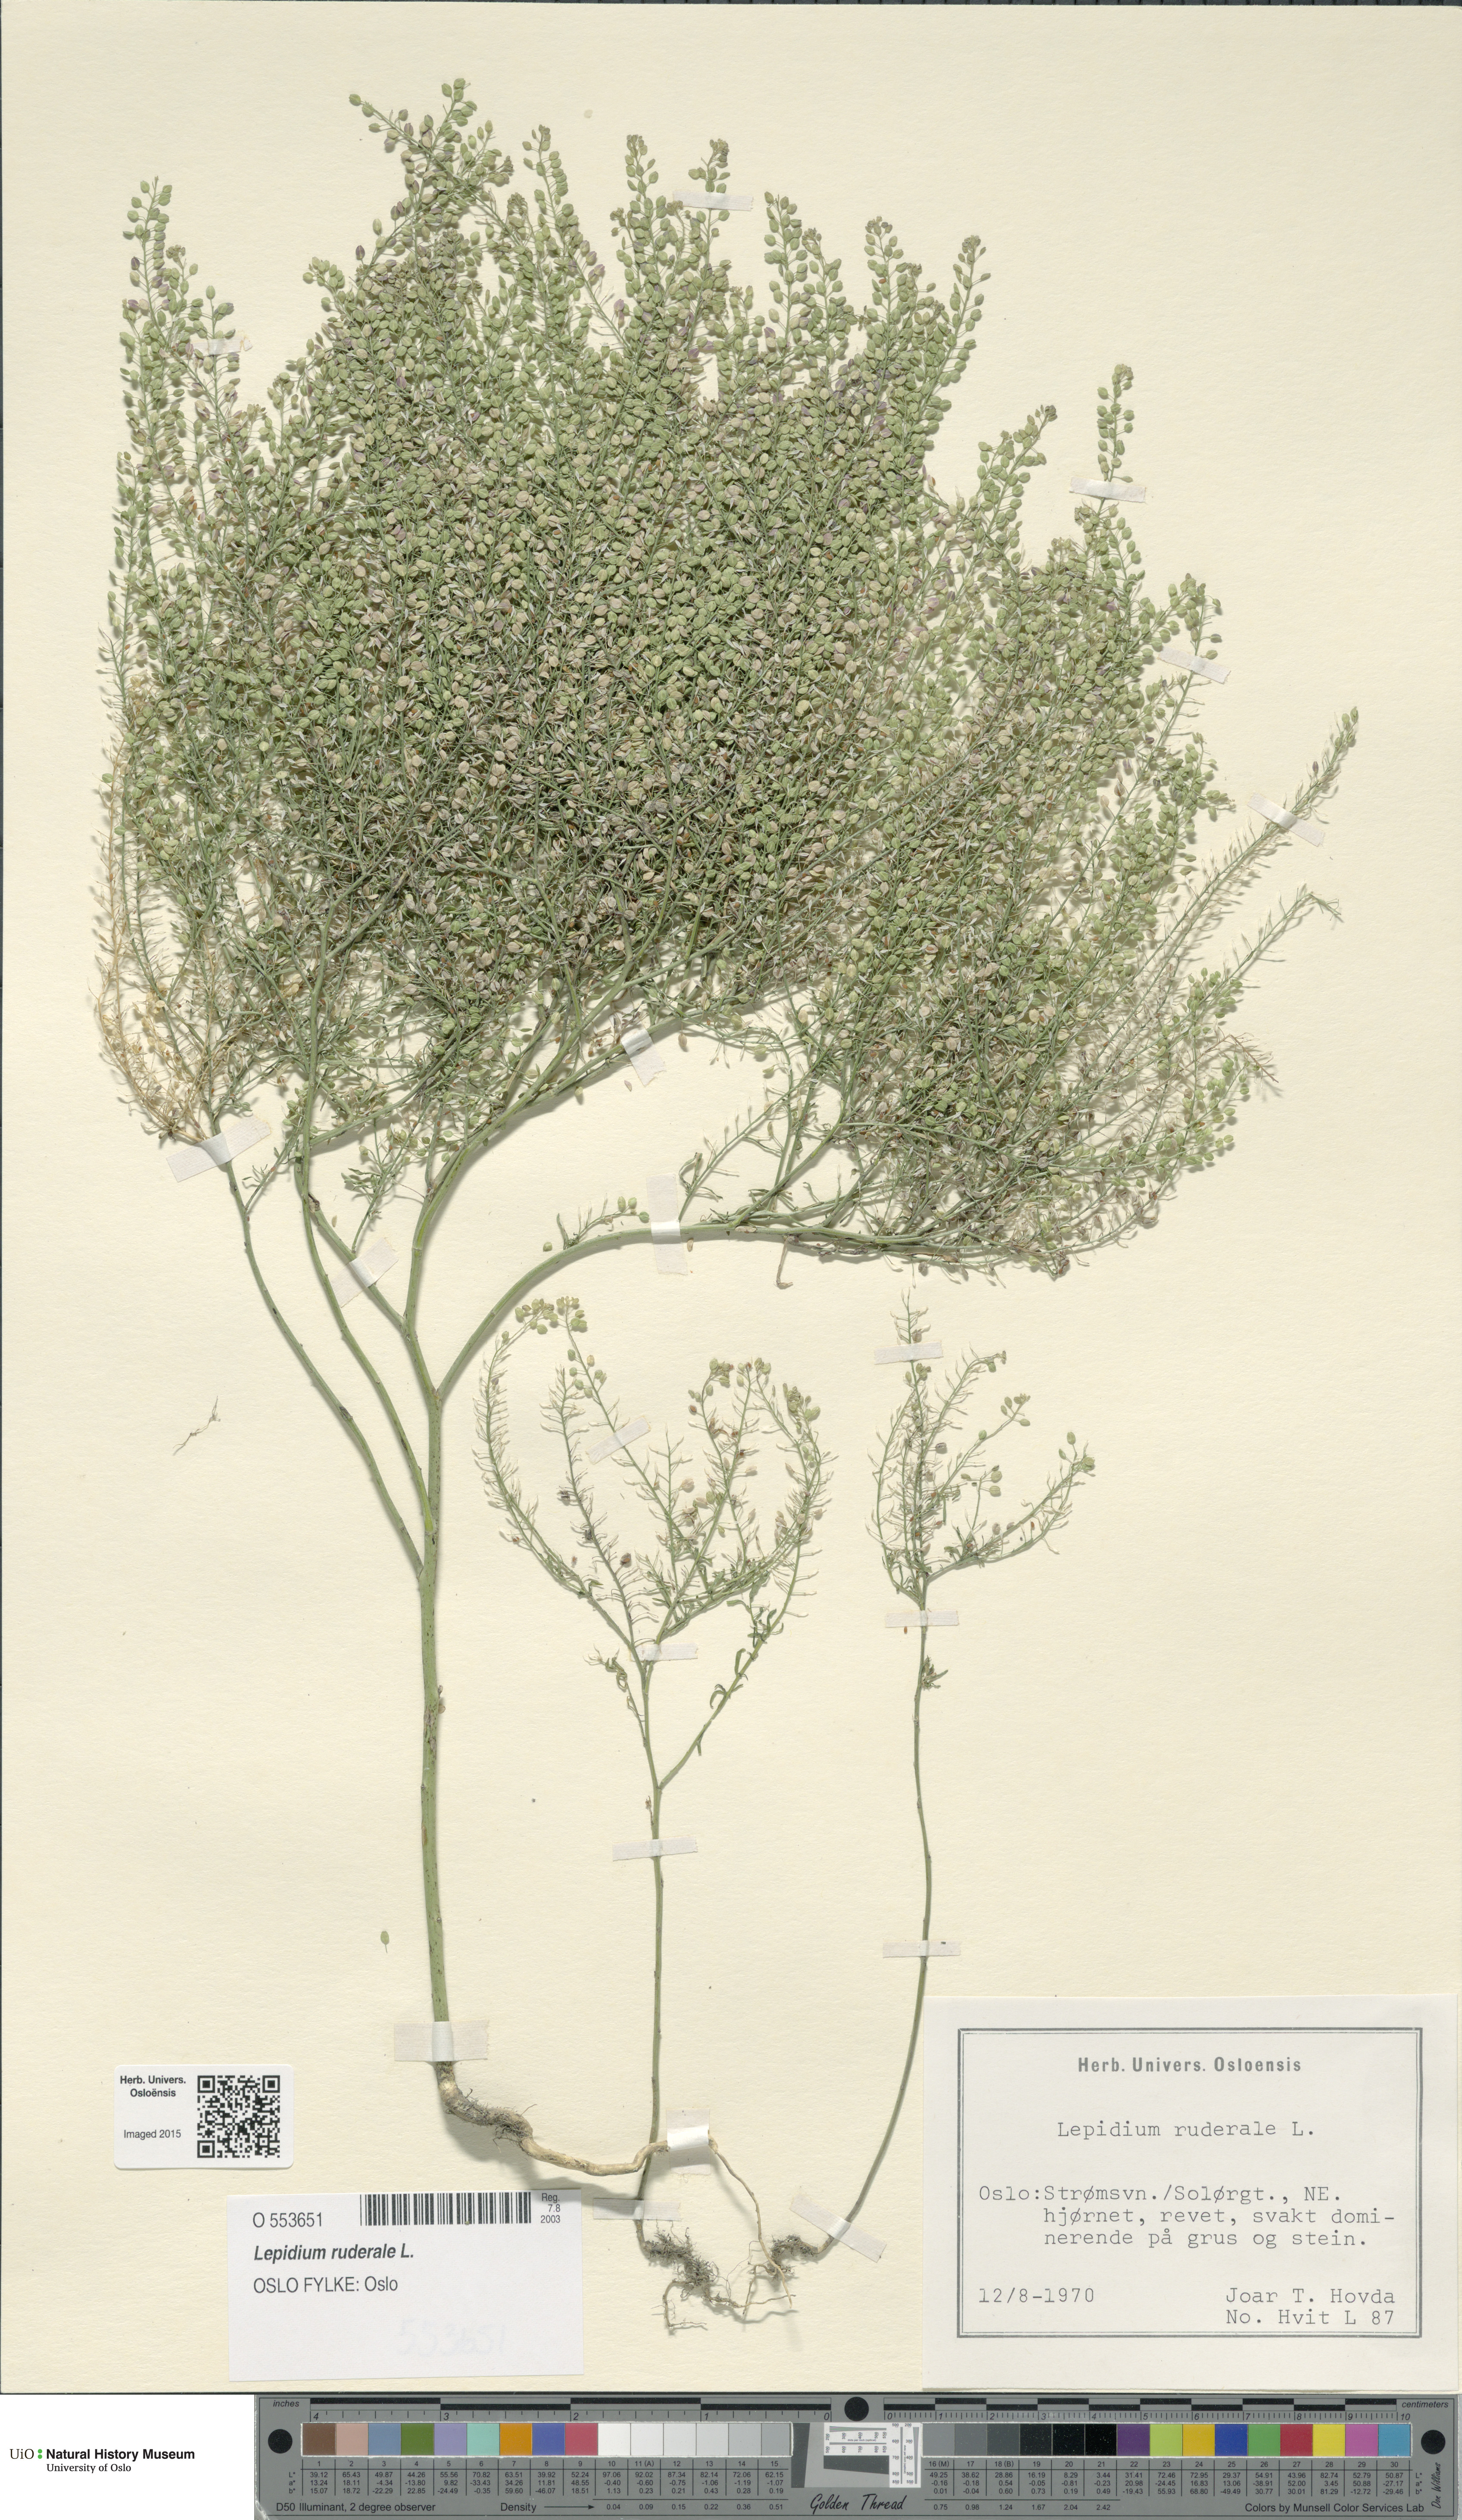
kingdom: Plantae
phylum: Tracheophyta
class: Magnoliopsida
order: Brassicales
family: Brassicaceae
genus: Lepidium
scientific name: Lepidium ruderale
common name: Narrow-leaved pepperwort
